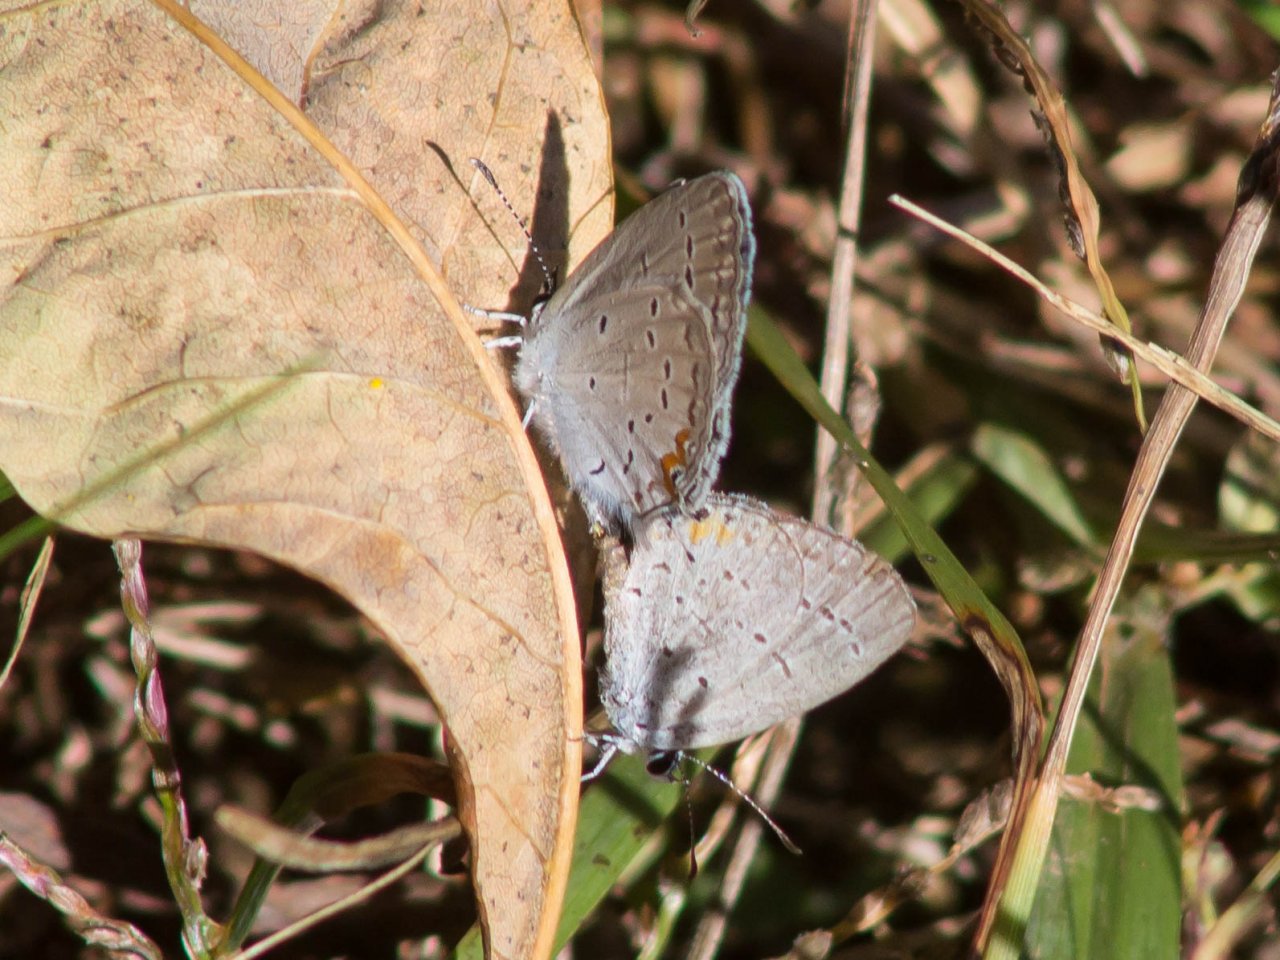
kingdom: Animalia
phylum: Arthropoda
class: Insecta
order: Lepidoptera
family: Lycaenidae
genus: Elkalyce
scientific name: Elkalyce comyntas
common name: Eastern Tailed-Blue
